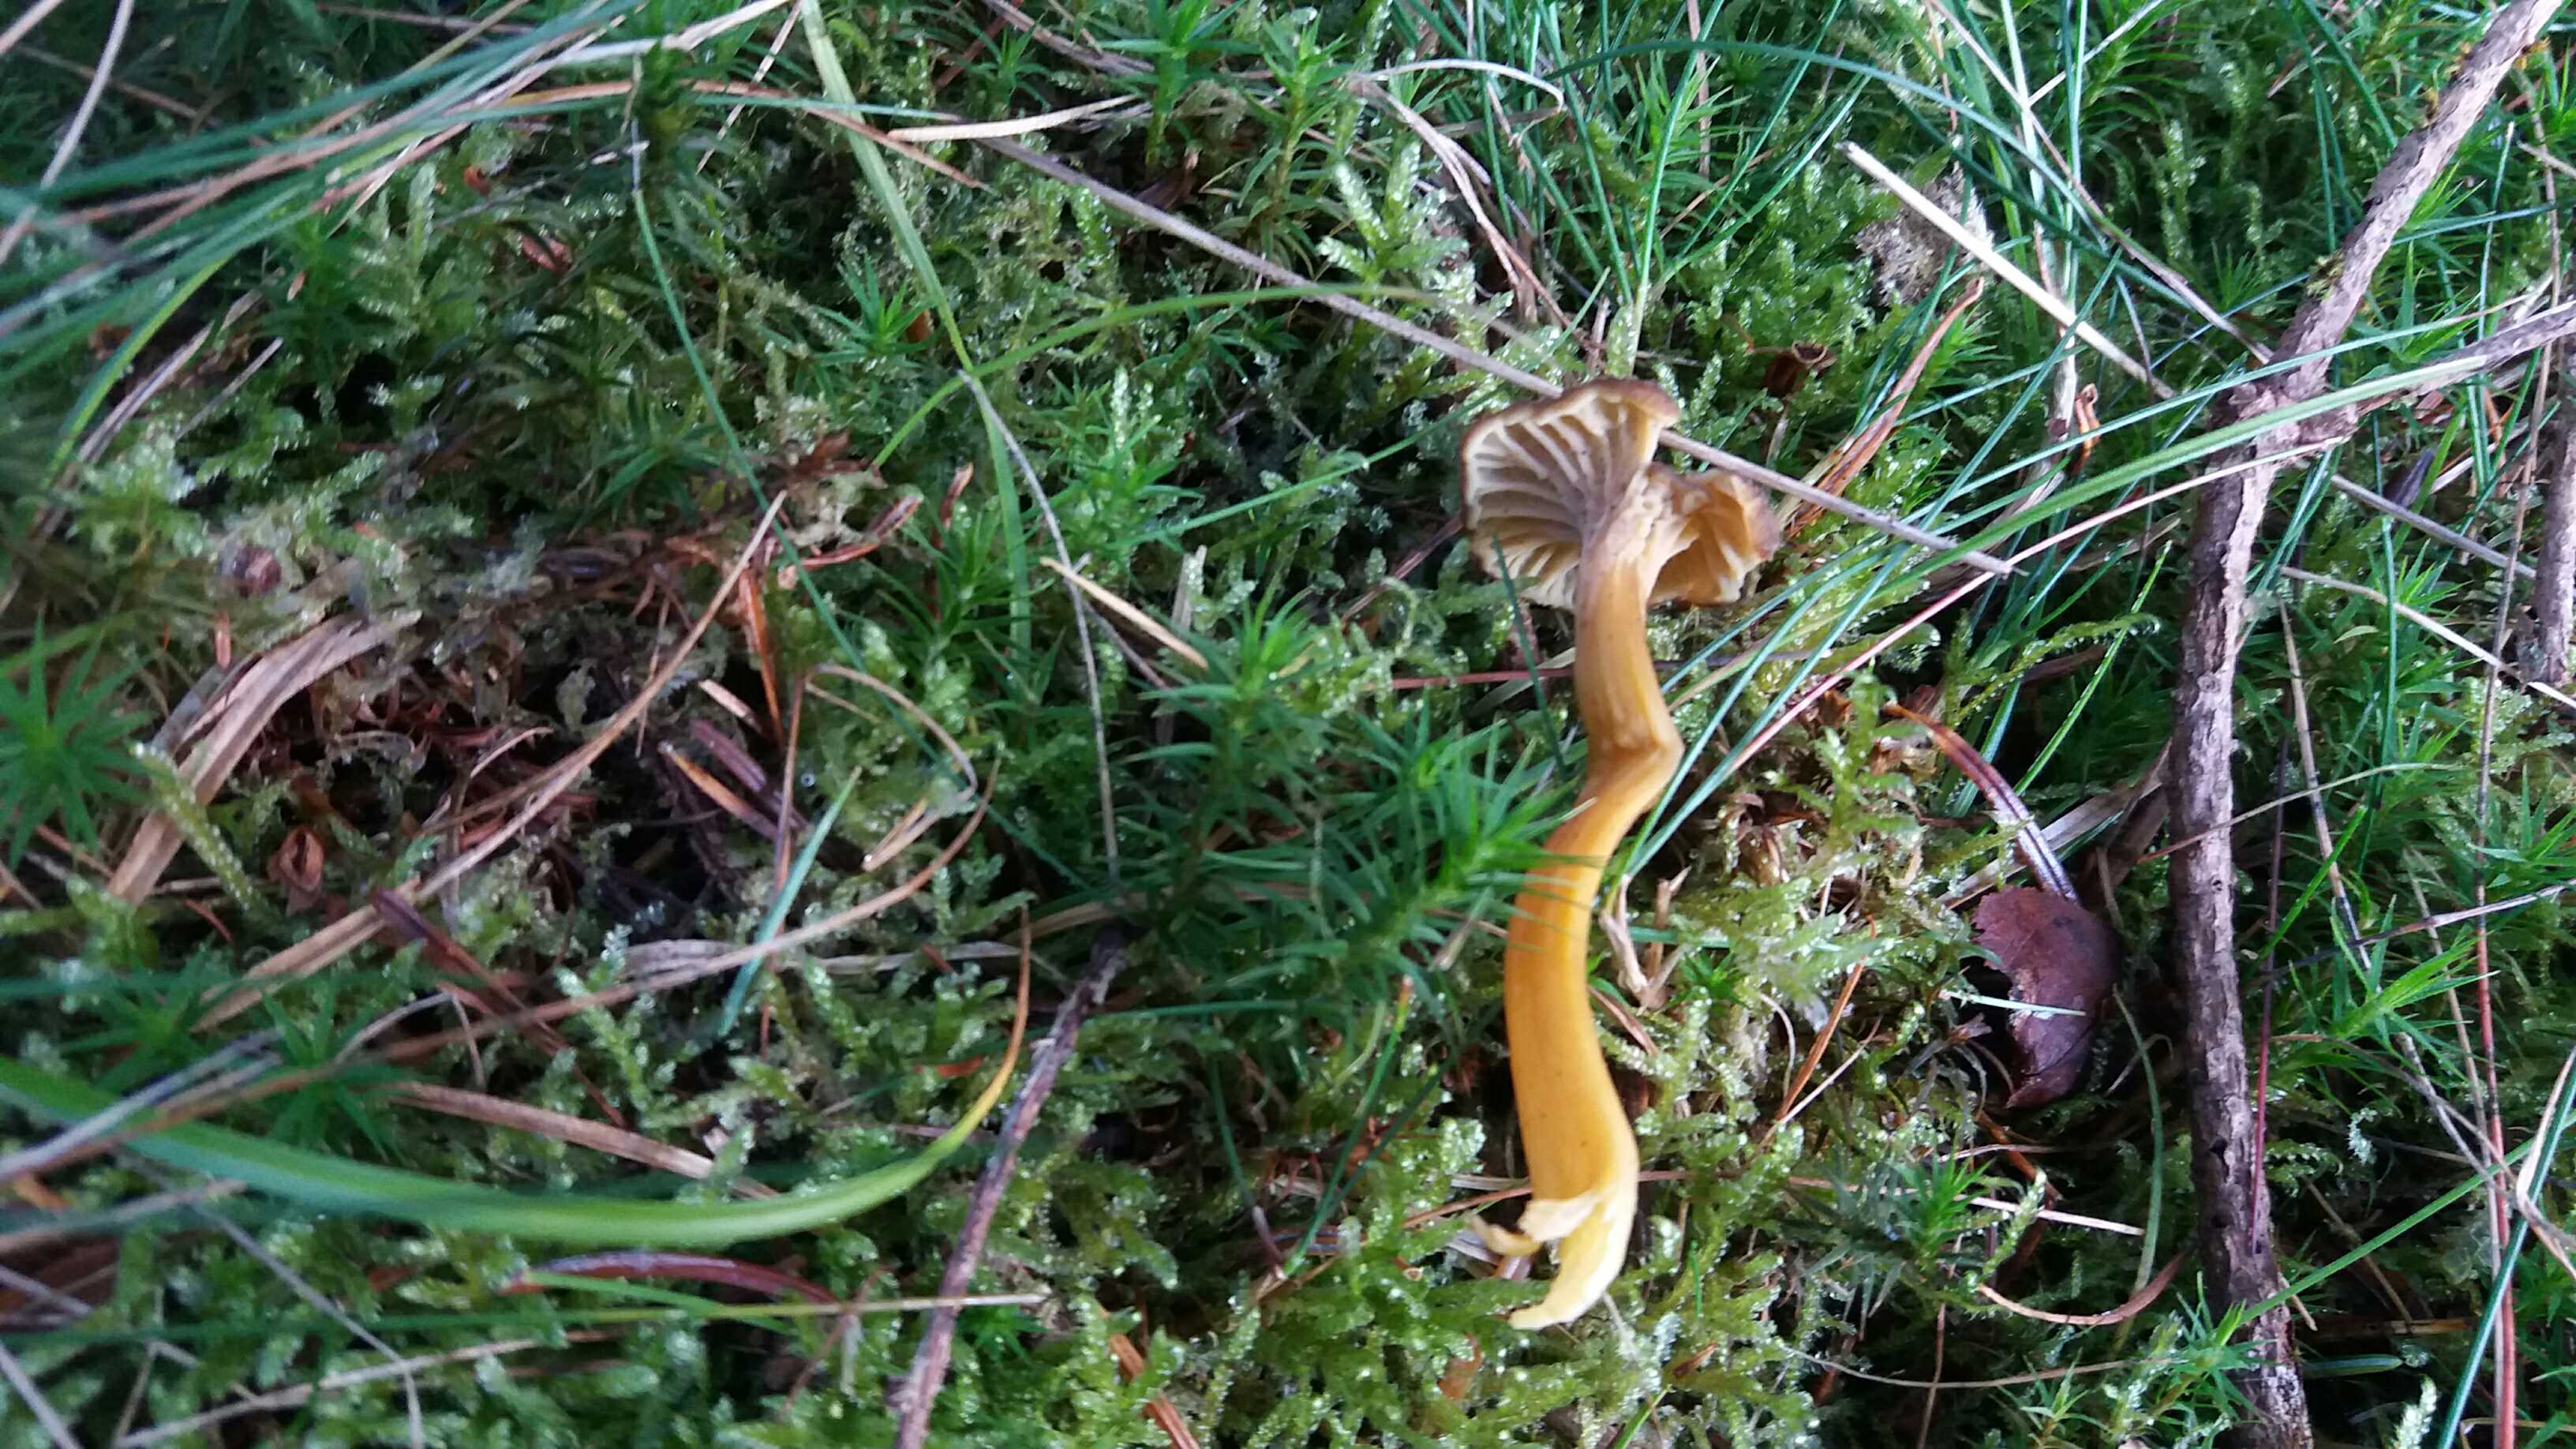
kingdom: Fungi
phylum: Basidiomycota
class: Agaricomycetes
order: Cantharellales
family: Hydnaceae
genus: Craterellus
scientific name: Craterellus tubaeformis
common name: tragt-kantarel
